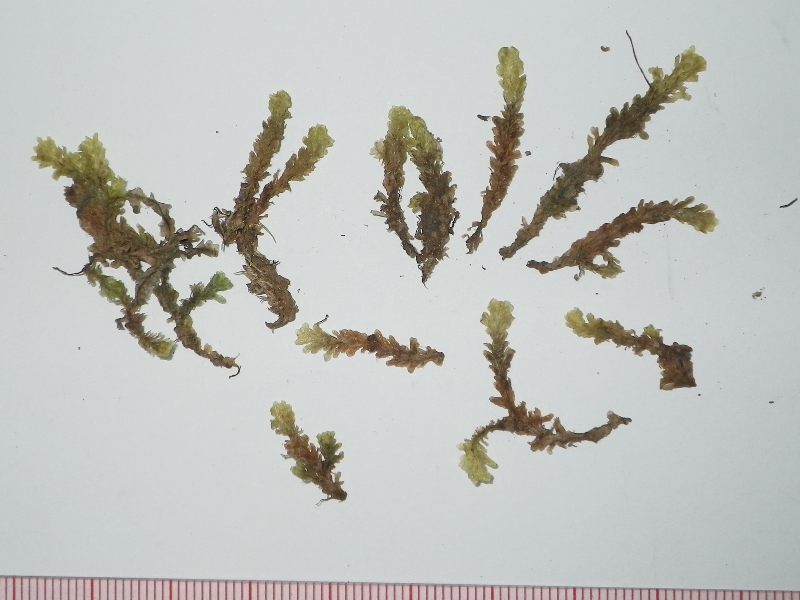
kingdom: Plantae
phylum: Bryophyta
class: Bryopsida
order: Hookeriales
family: Daltoniaceae
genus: Distichophyllum
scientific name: Distichophyllum spathulatum
